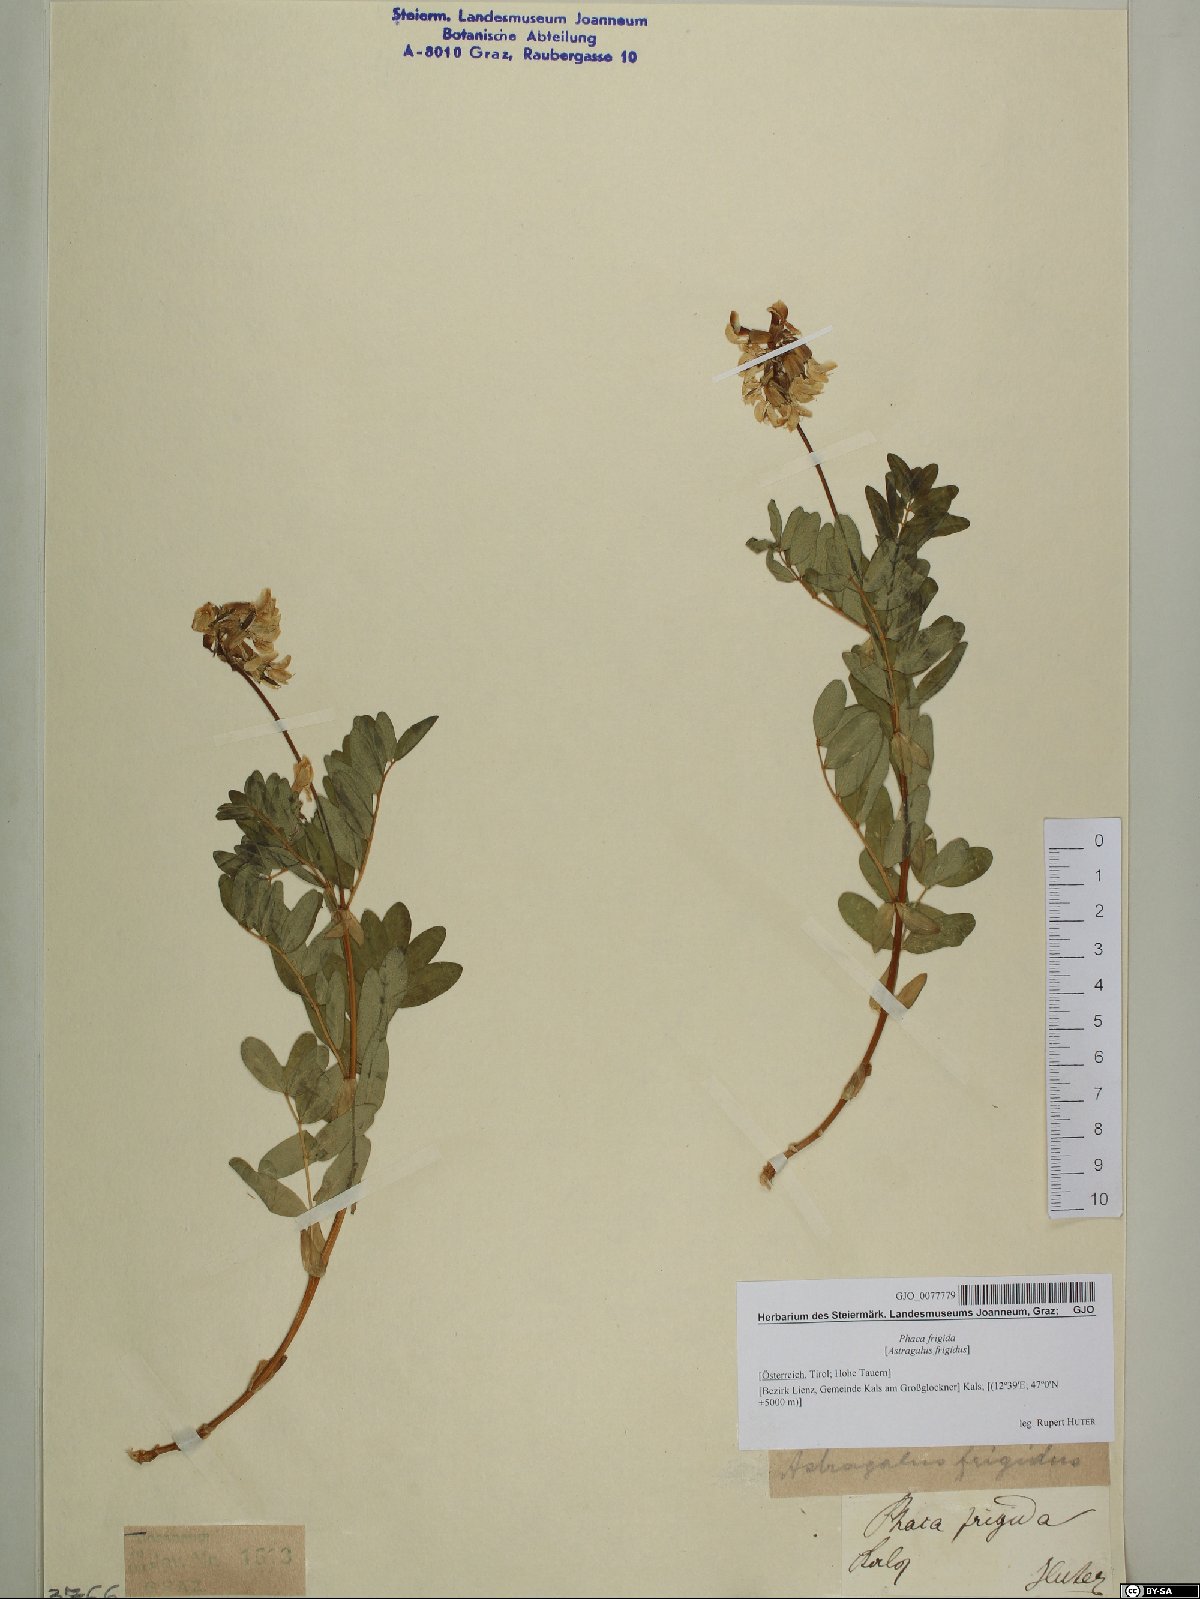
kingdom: Plantae
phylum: Tracheophyta
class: Magnoliopsida
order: Fabales
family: Fabaceae
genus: Astragalus
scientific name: Astragalus frigidus
